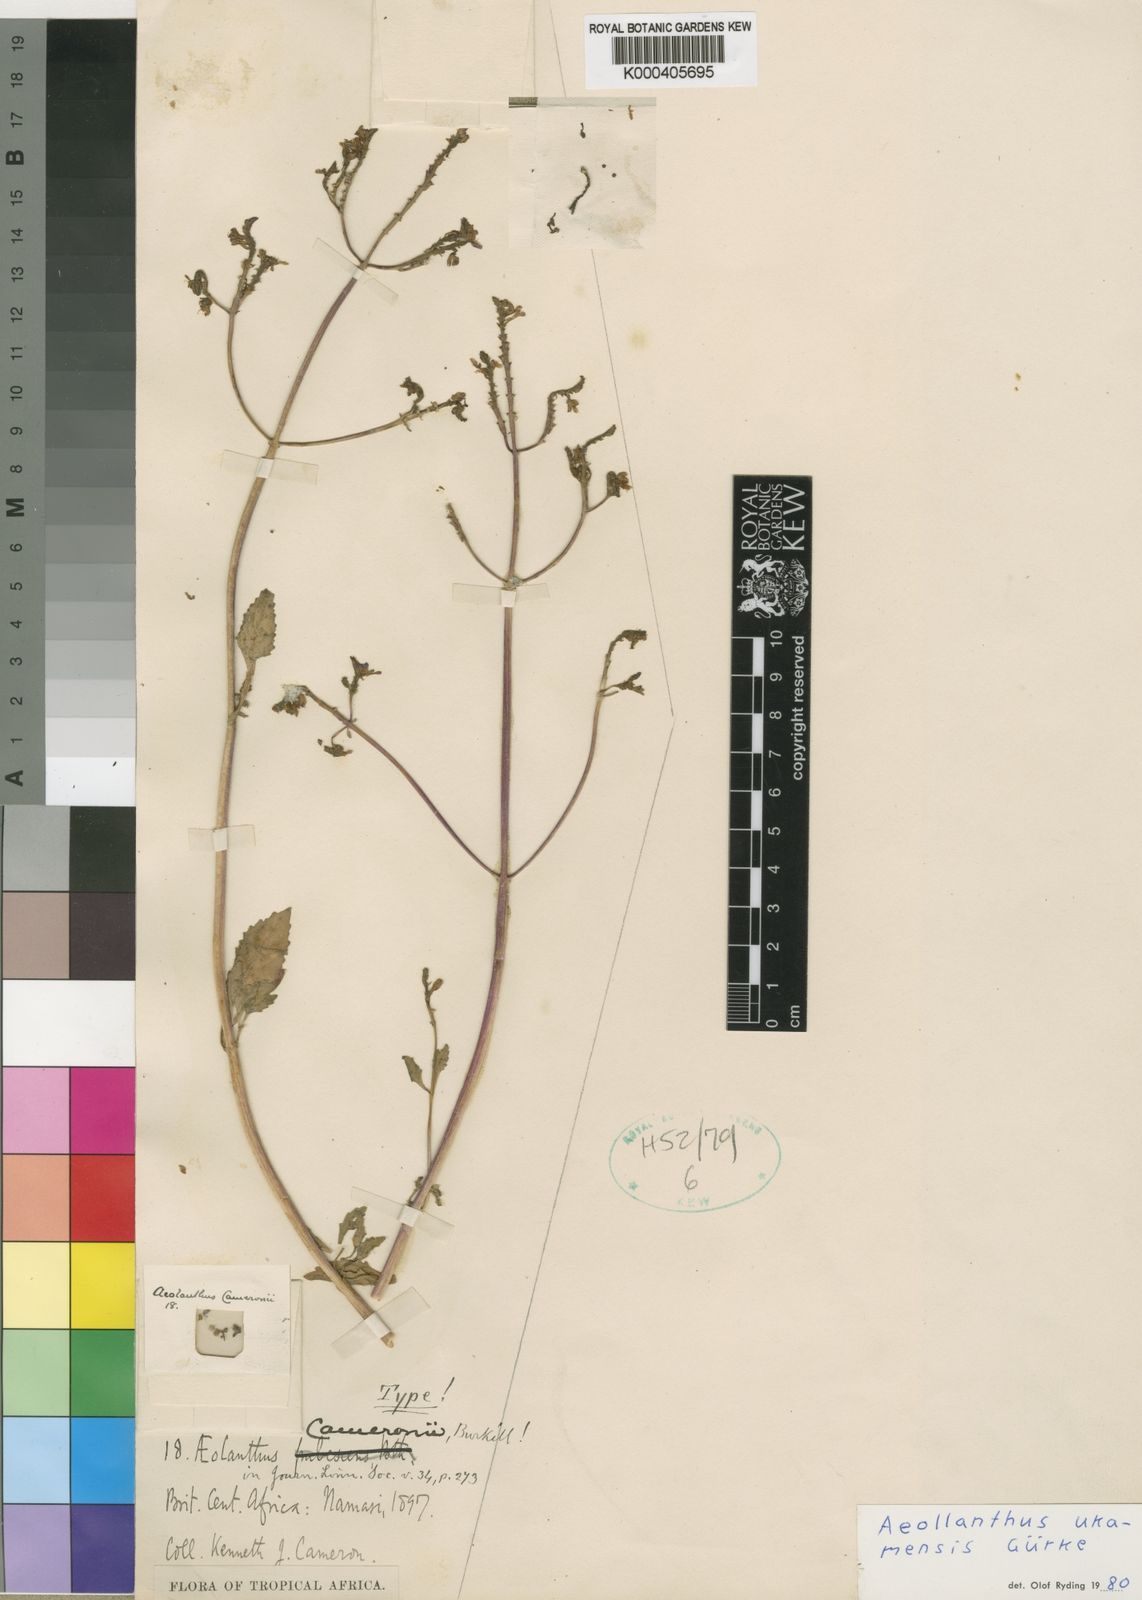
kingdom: Plantae
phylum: Tracheophyta
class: Magnoliopsida
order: Lamiales
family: Lamiaceae
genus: Aeollanthus
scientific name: Aeollanthus
